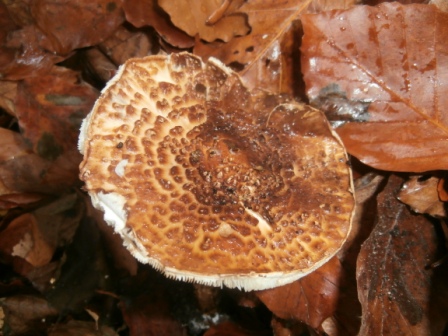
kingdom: Fungi
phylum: Basidiomycota
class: Agaricomycetes
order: Agaricales
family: Agaricaceae
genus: Echinoderma
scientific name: Echinoderma asperum
